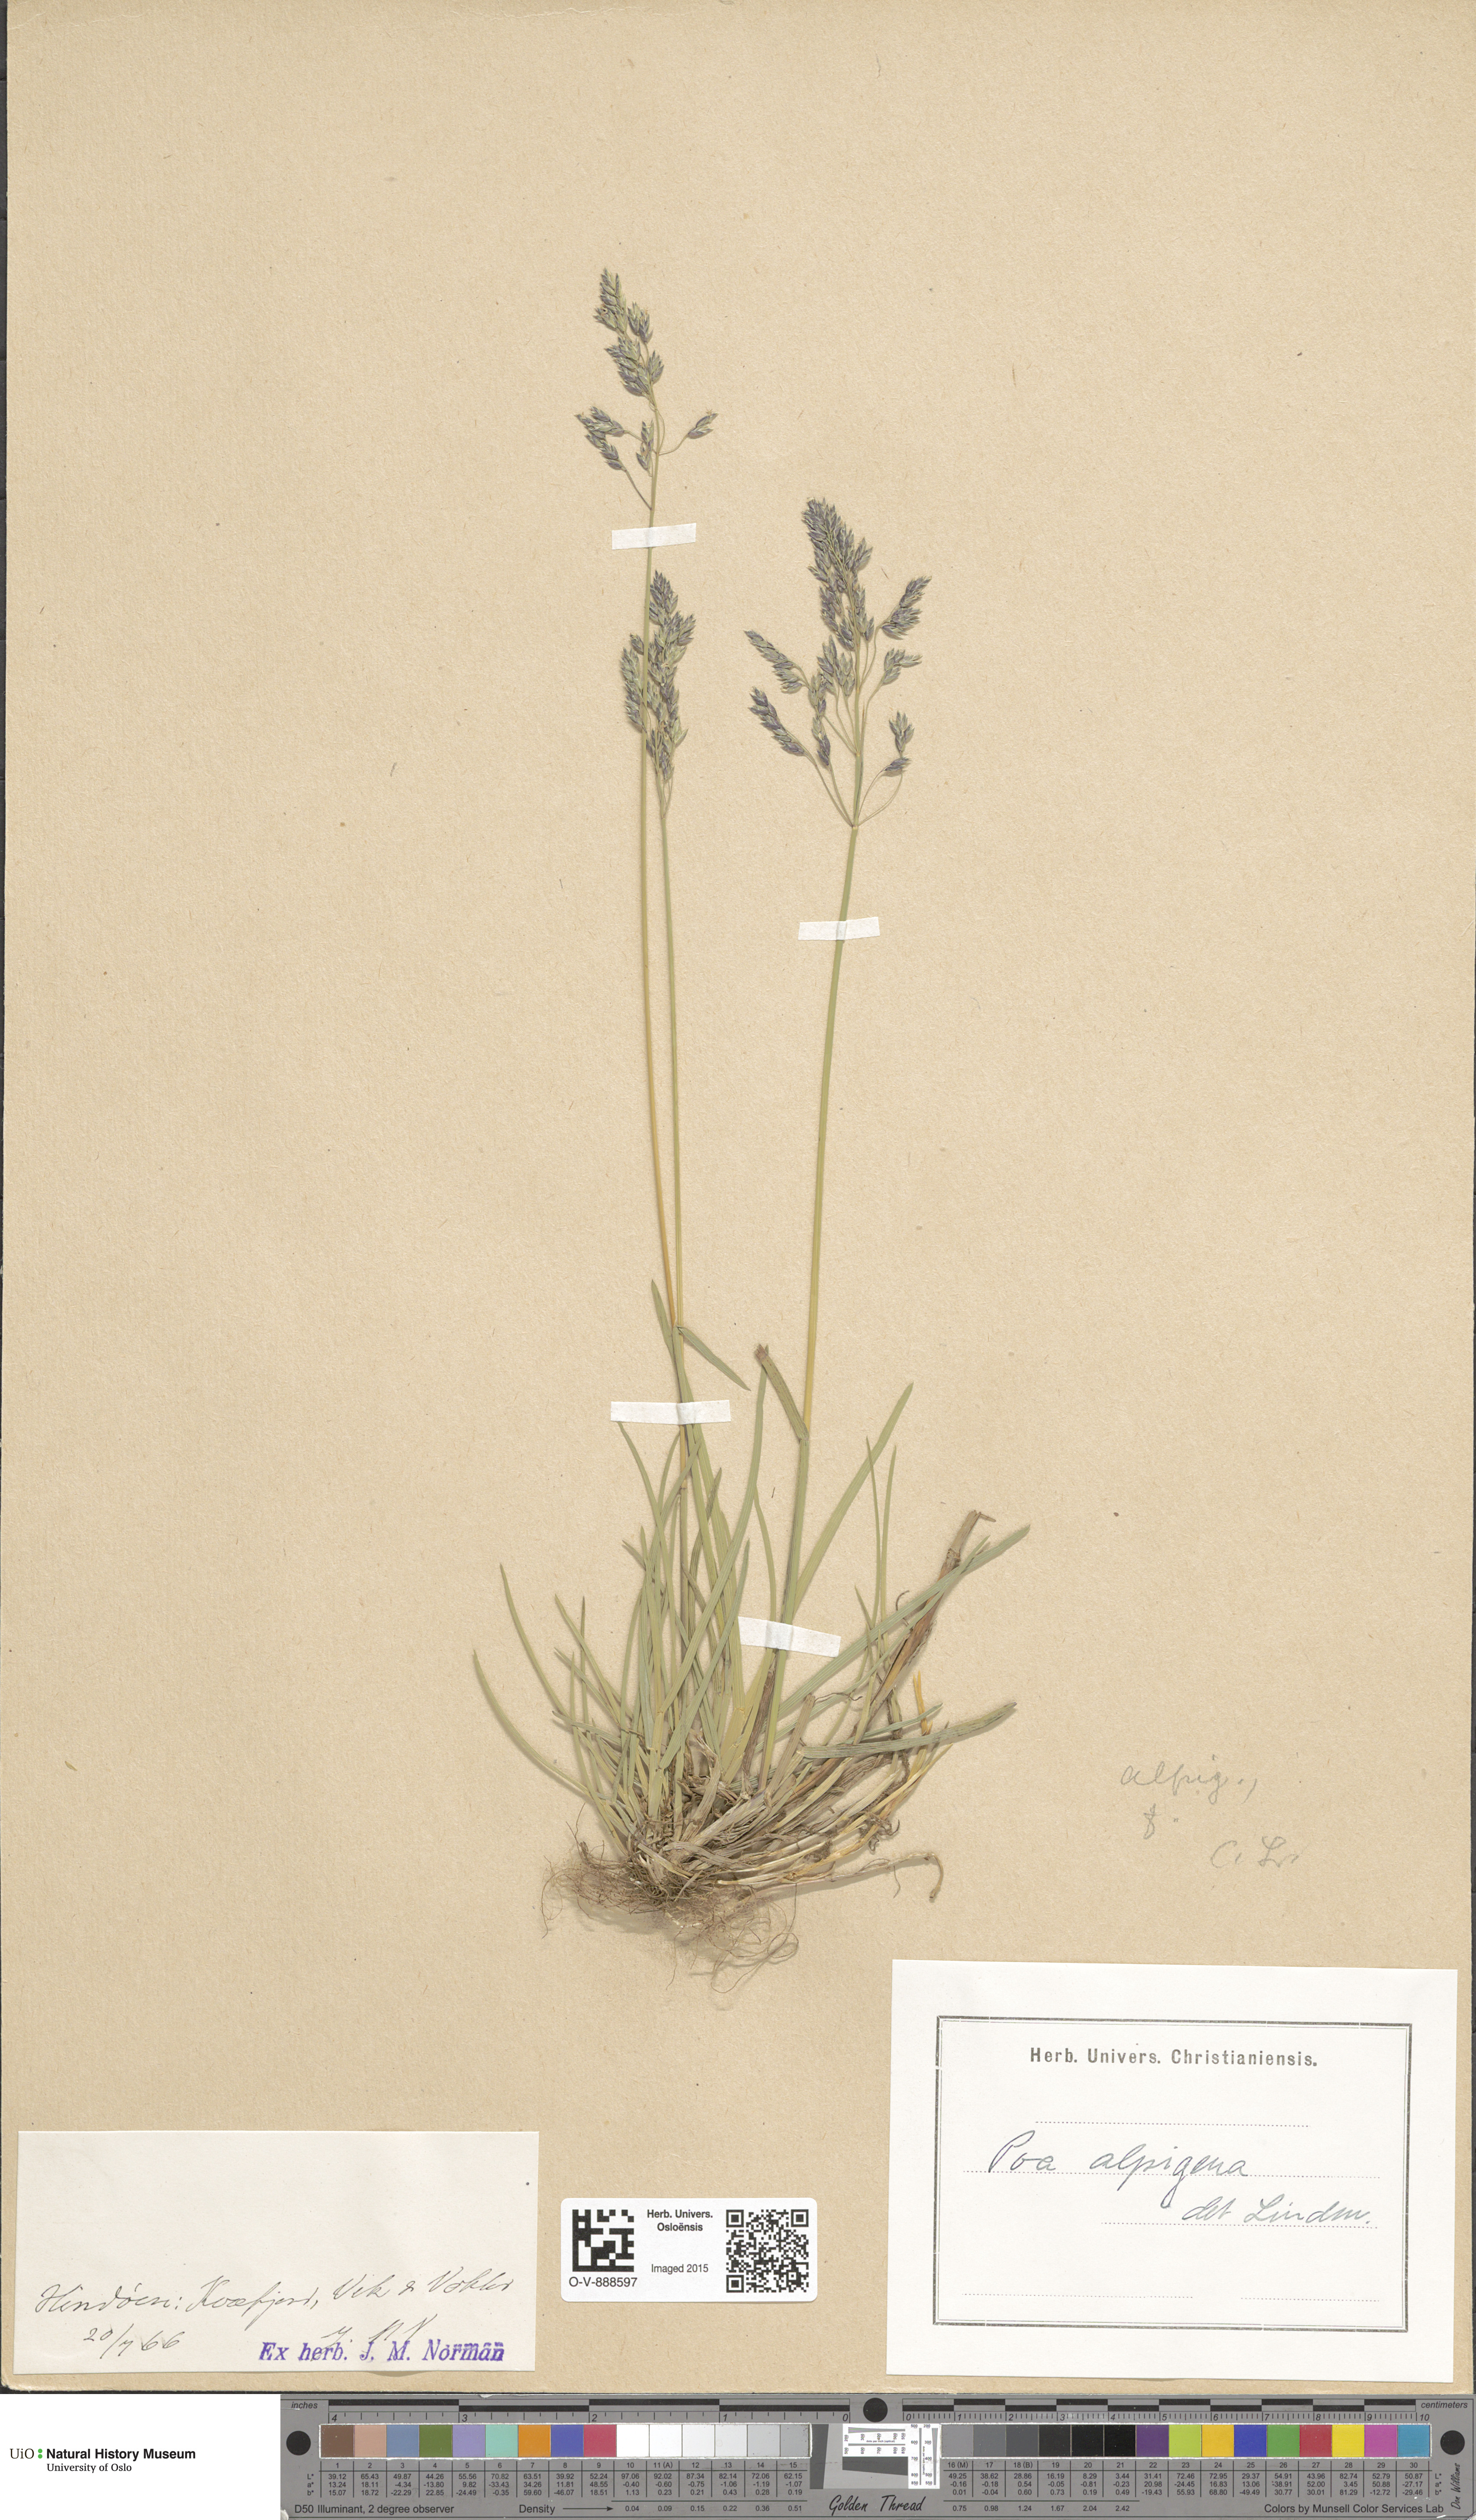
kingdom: Plantae
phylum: Tracheophyta
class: Liliopsida
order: Poales
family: Poaceae
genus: Poa
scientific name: Poa alpigena
